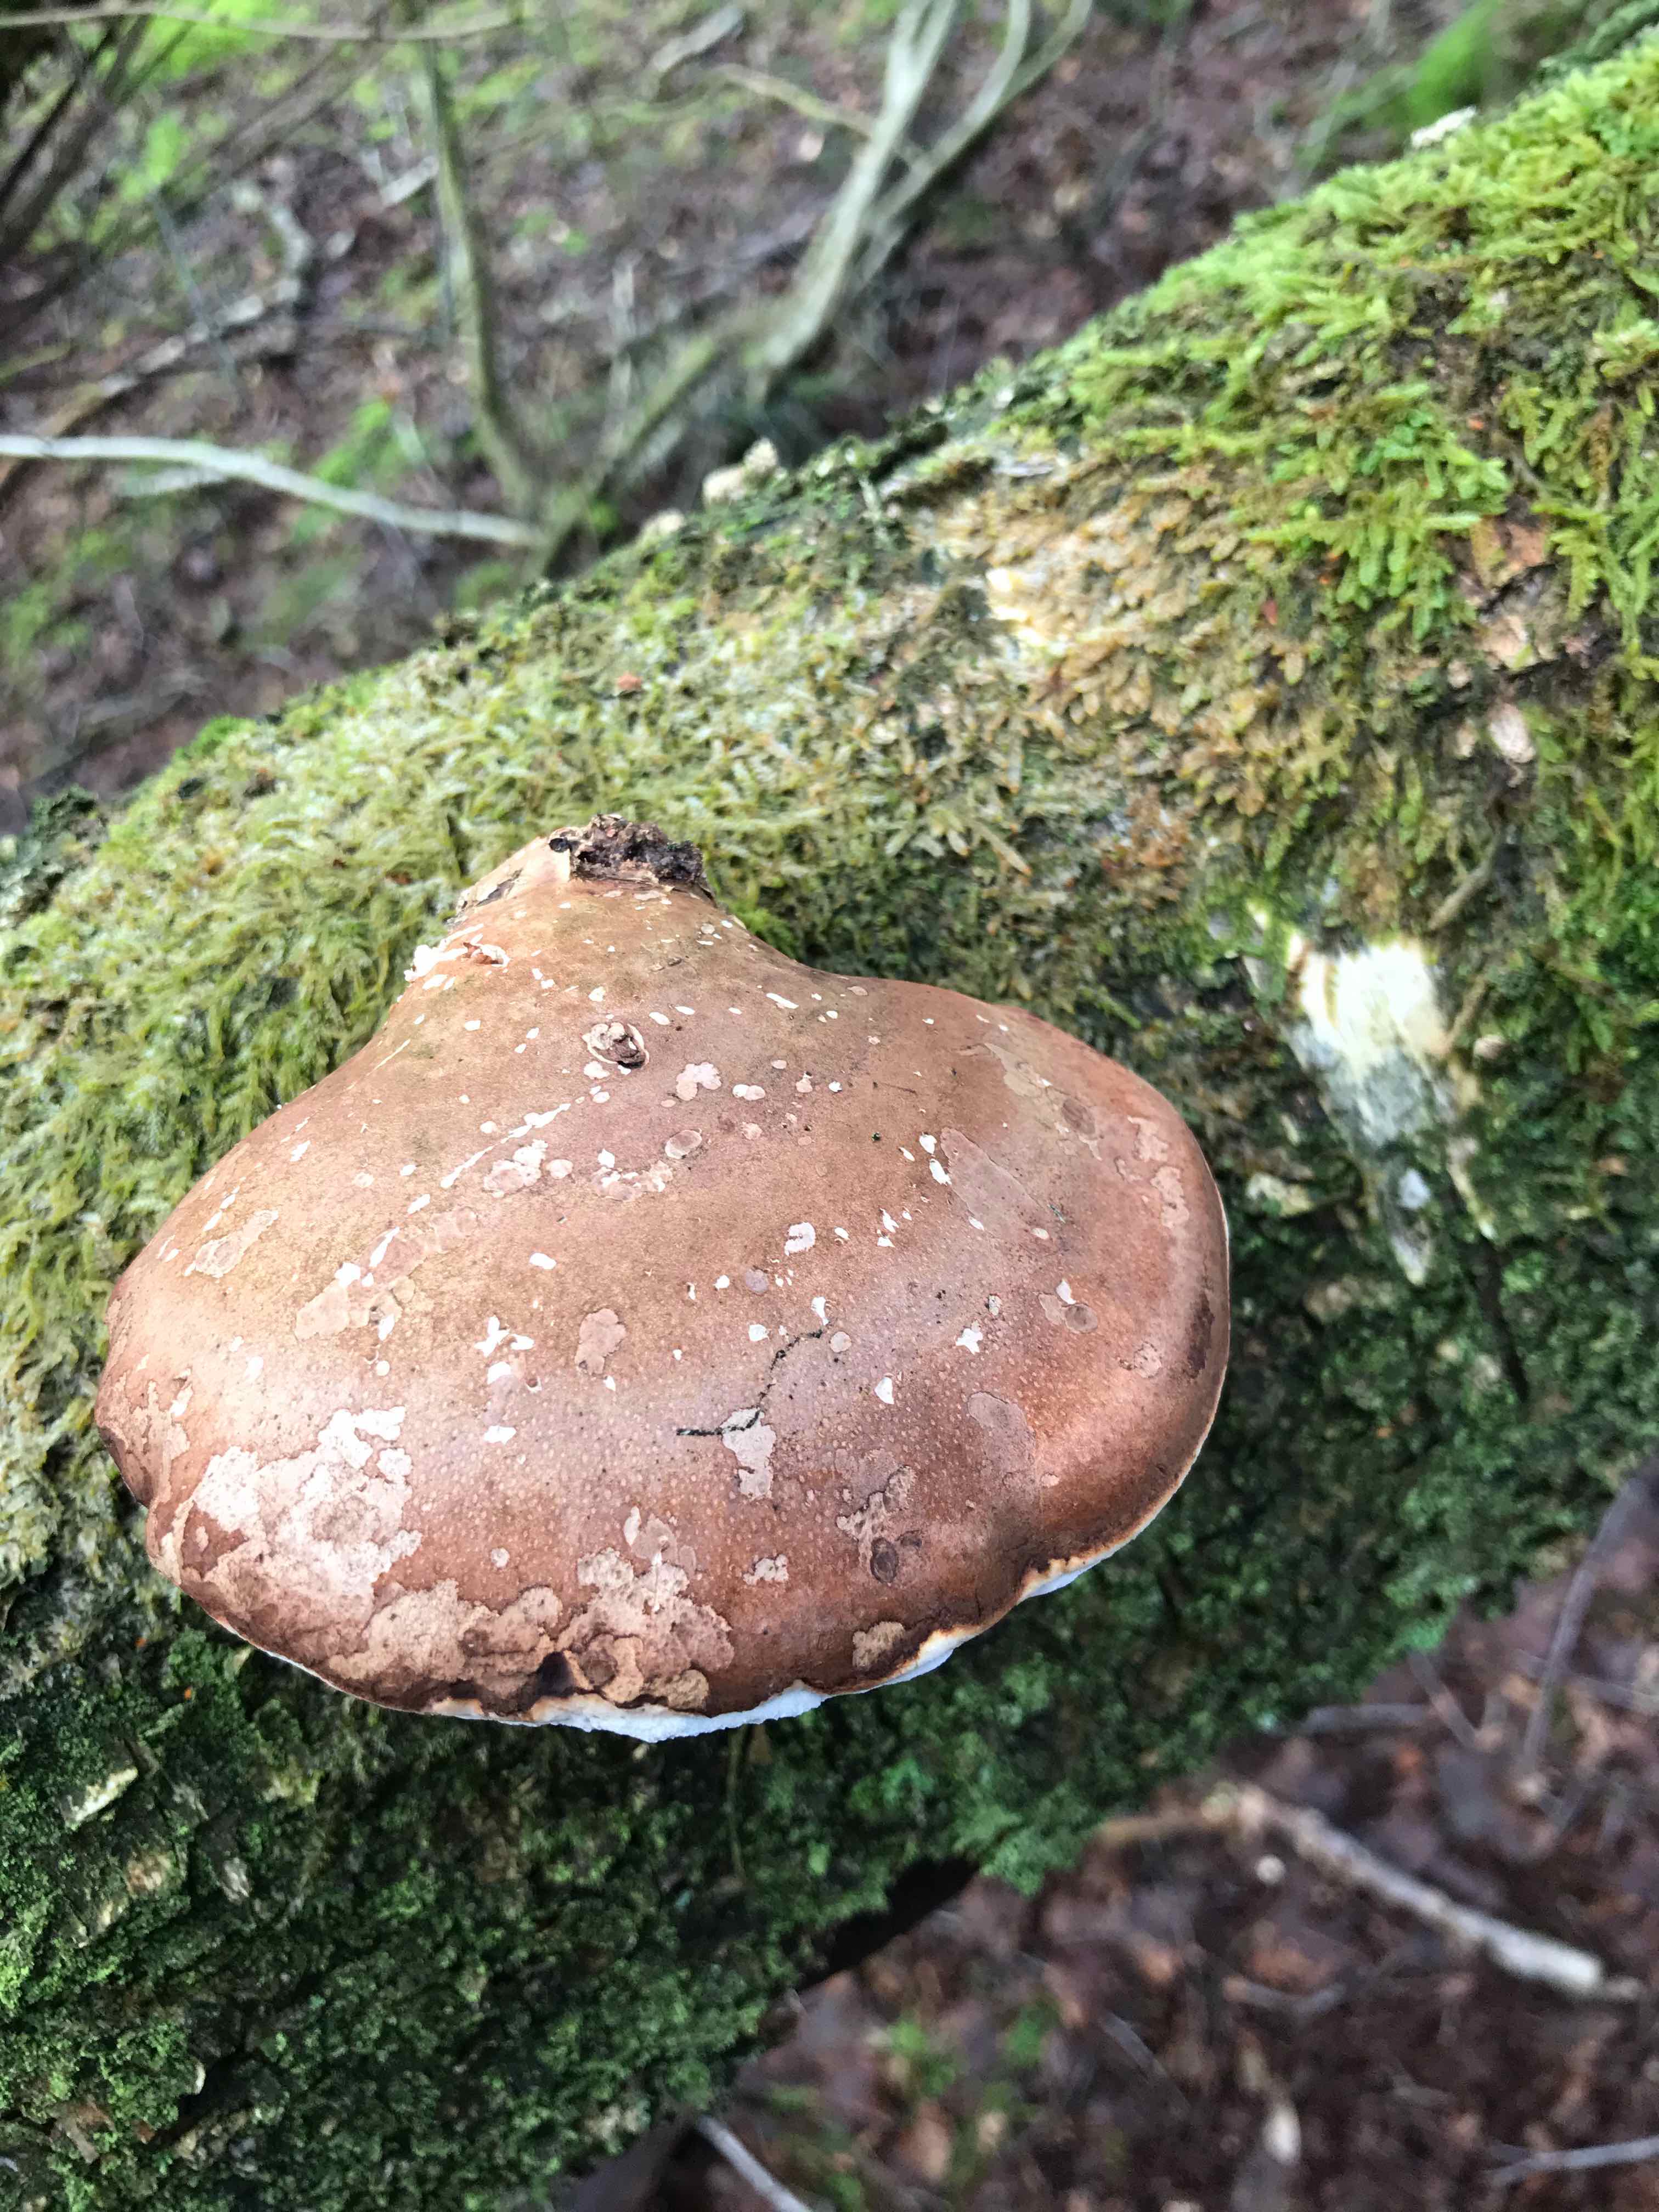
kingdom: Fungi
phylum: Basidiomycota
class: Agaricomycetes
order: Polyporales
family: Fomitopsidaceae
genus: Fomitopsis
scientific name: Fomitopsis betulina
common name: birkeporesvamp
